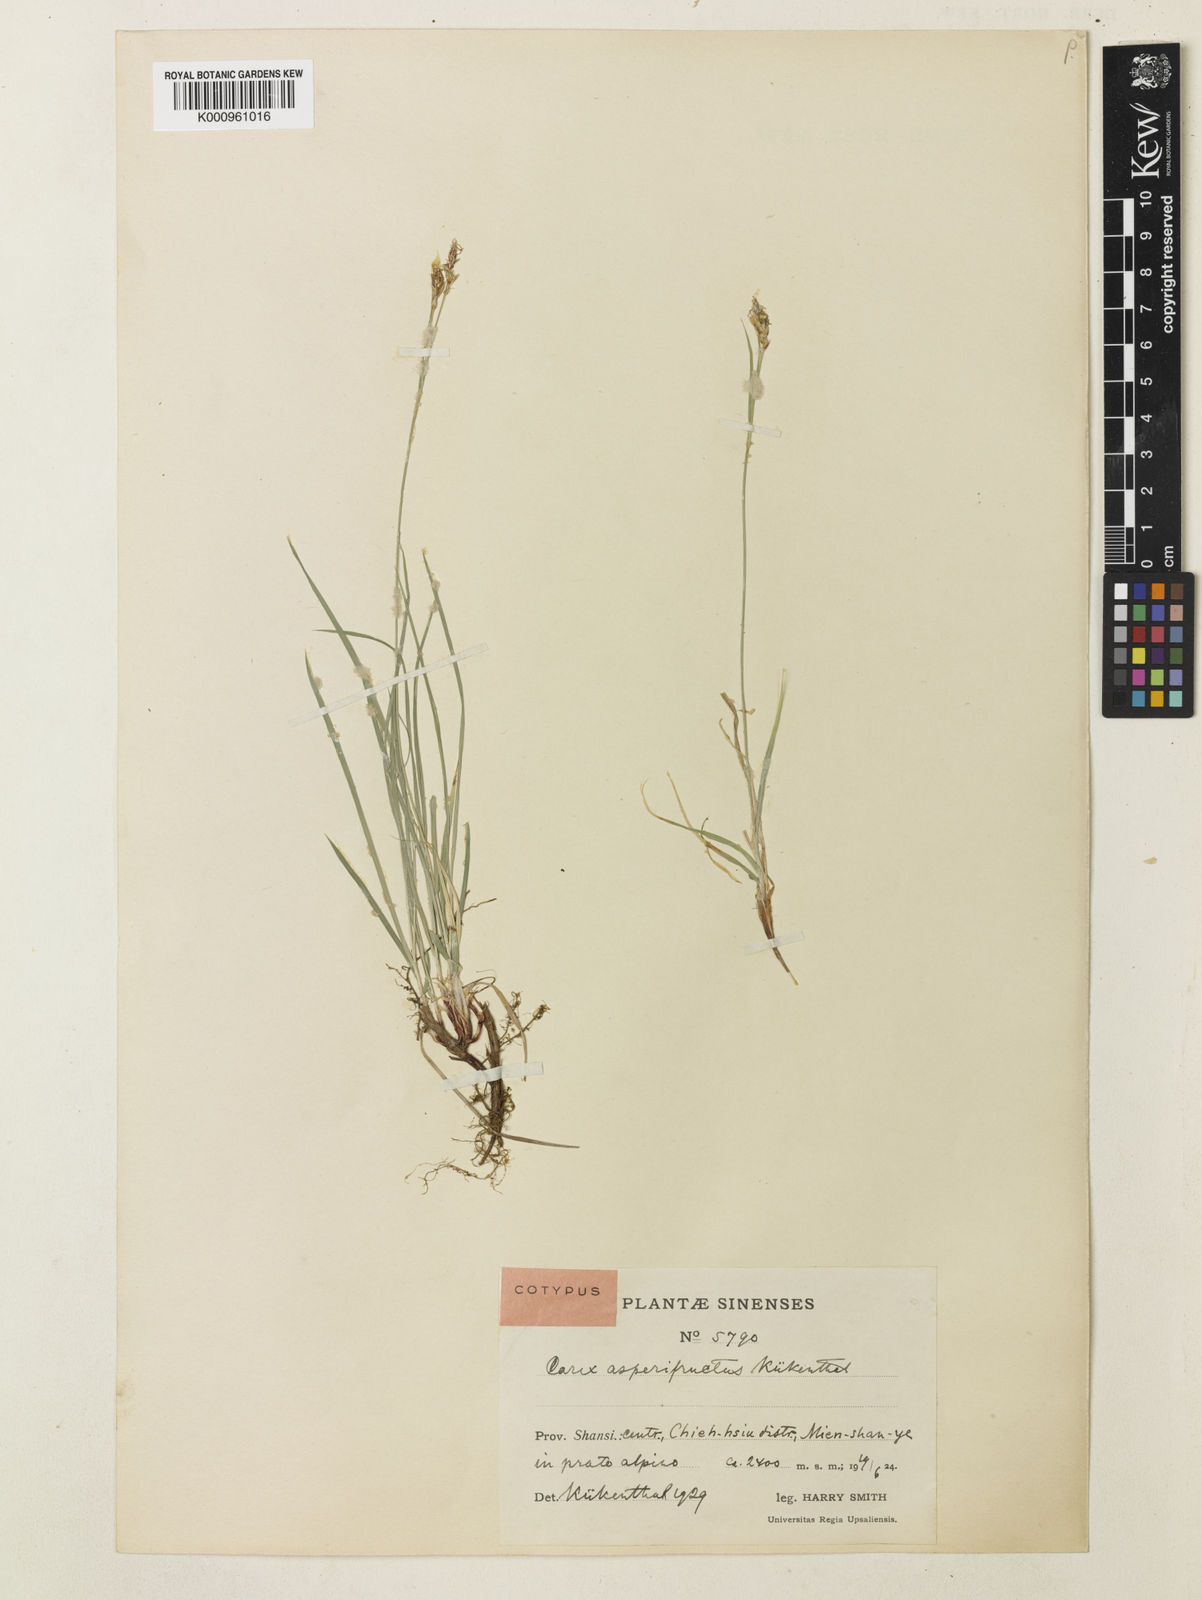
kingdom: Plantae
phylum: Tracheophyta
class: Liliopsida
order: Poales
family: Cyperaceae
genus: Carex
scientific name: Carex
